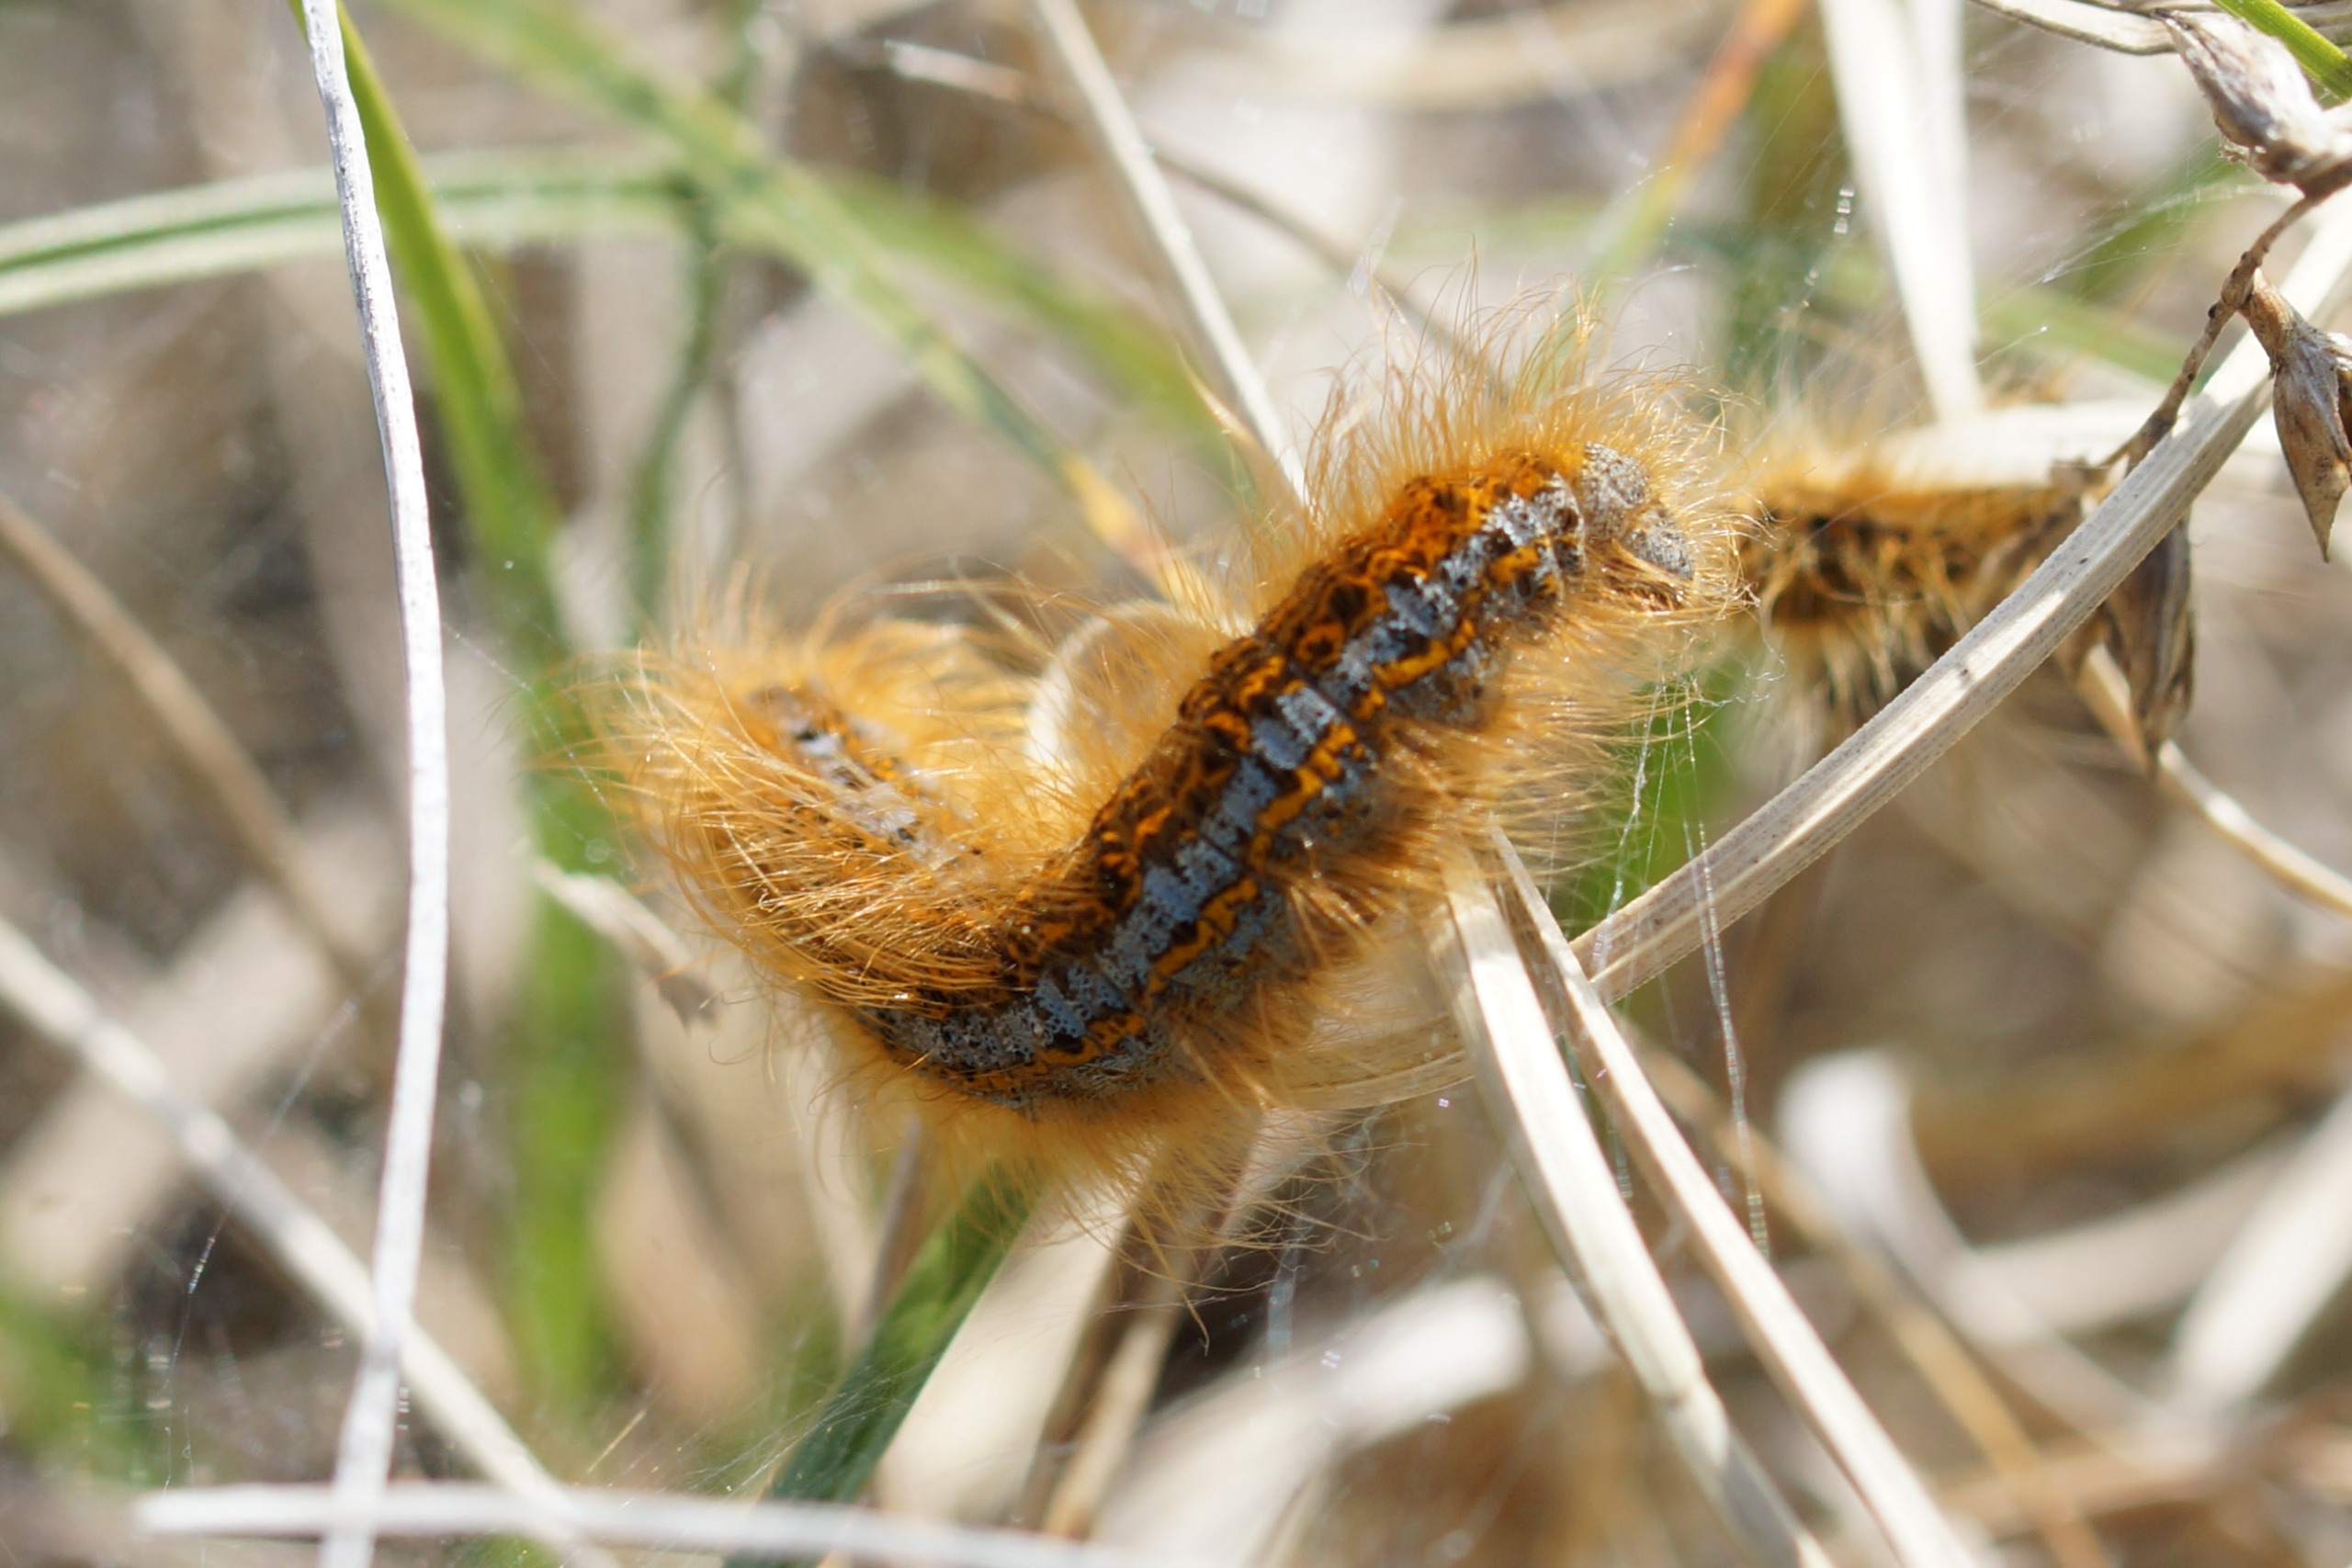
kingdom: Animalia
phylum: Arthropoda
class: Insecta
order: Lepidoptera
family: Lasiocampidae
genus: Malacosoma
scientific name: Malacosoma castrensis
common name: Redespinder
